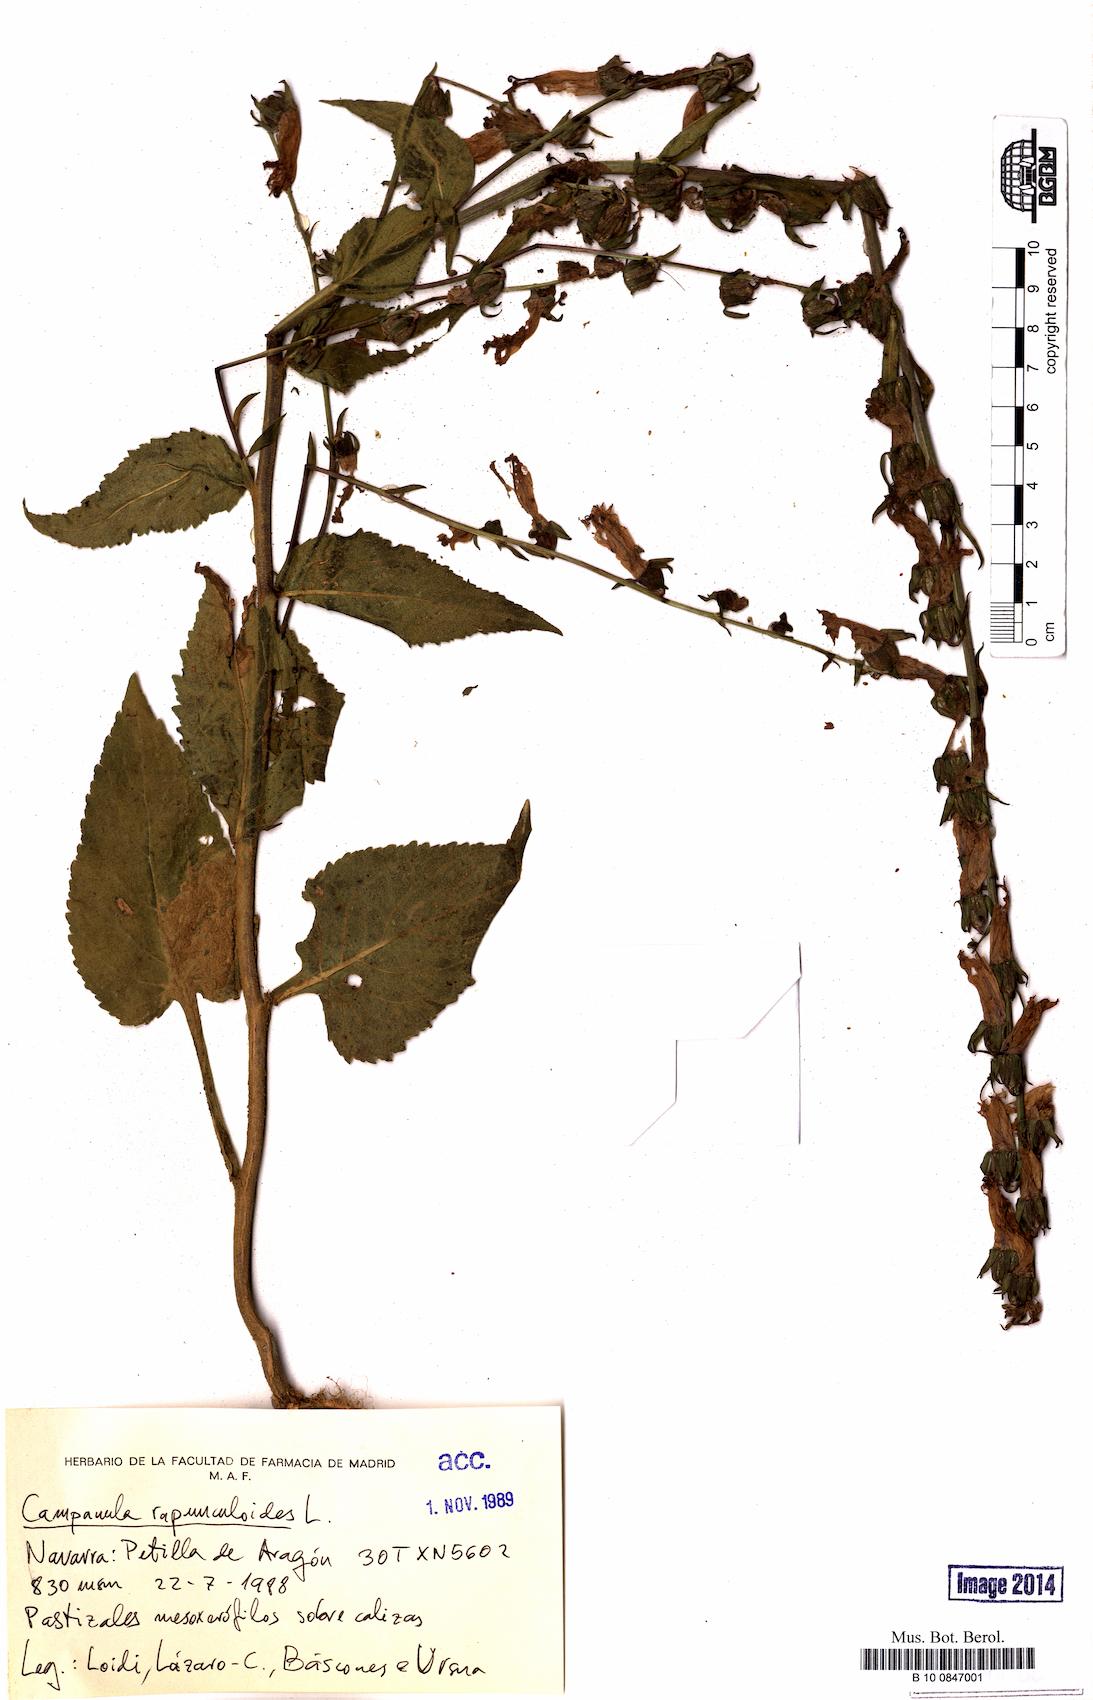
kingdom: Plantae
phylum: Tracheophyta
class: Magnoliopsida
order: Asterales
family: Campanulaceae
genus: Campanula
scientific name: Campanula rapunculoides
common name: Creeping bellflower
